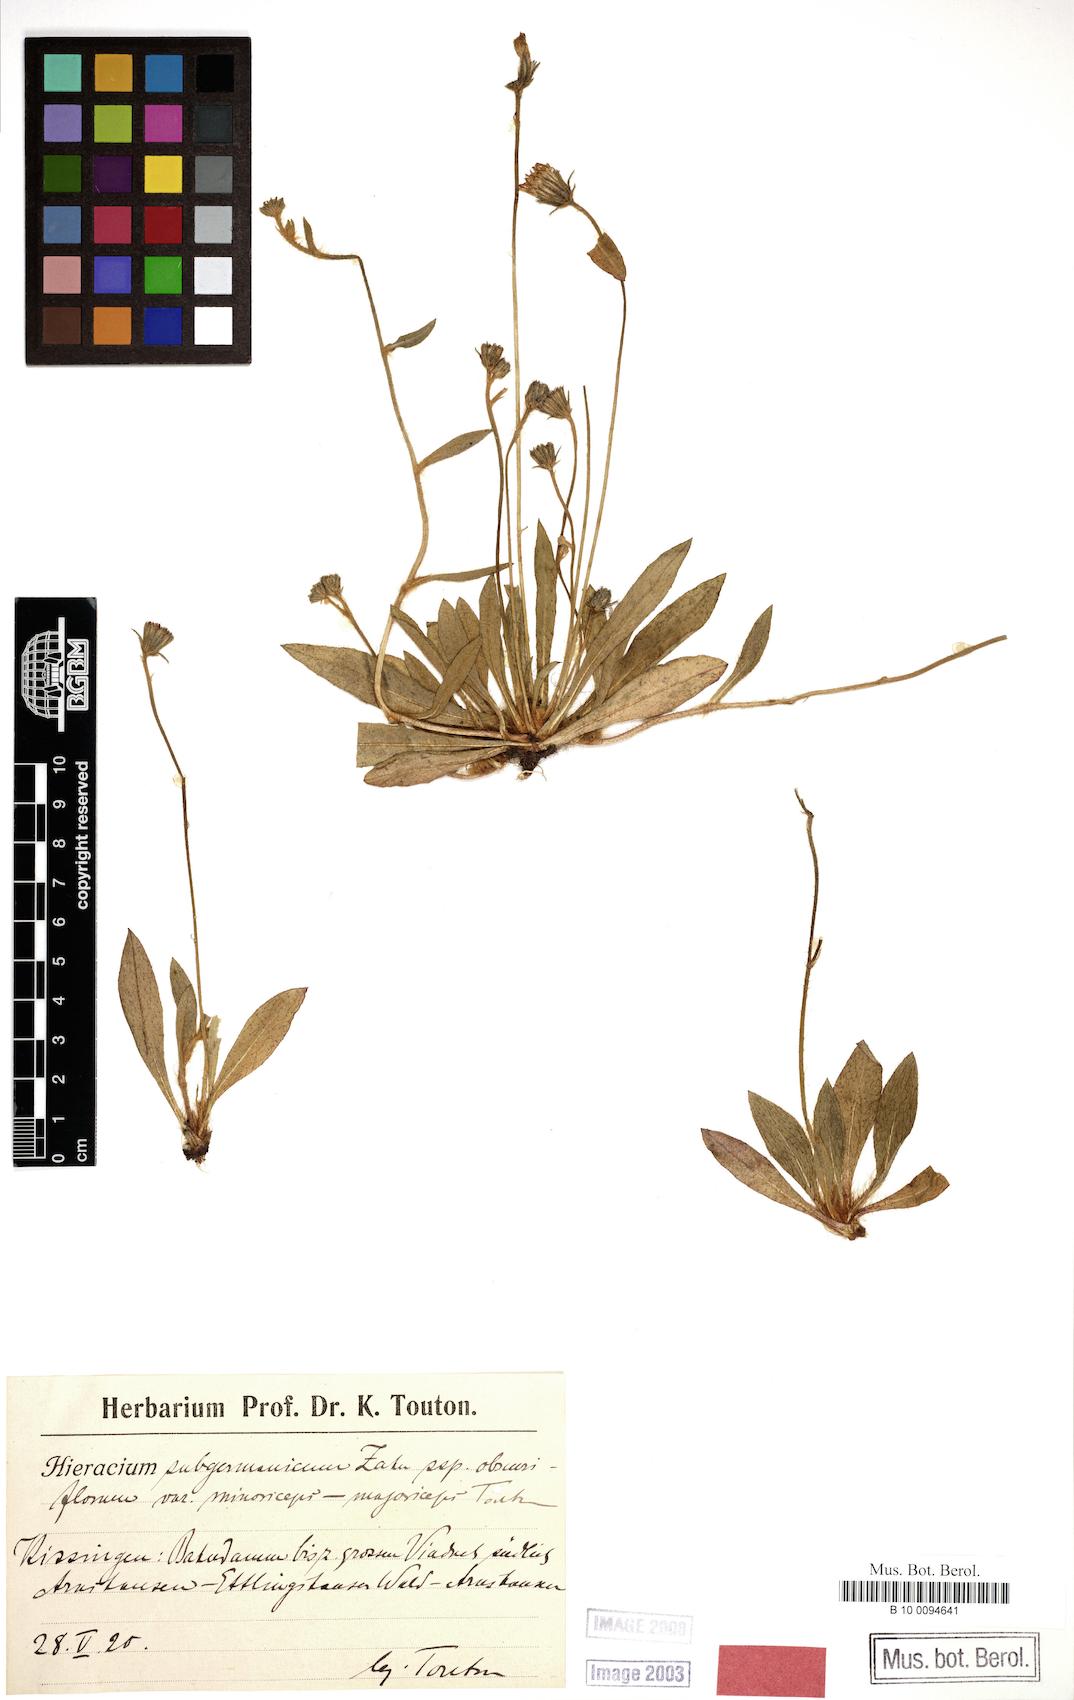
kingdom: Plantae
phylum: Tracheophyta
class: Magnoliopsida
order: Asterales
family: Asteraceae
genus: Hieracium
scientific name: Hieracium subgermanicum
